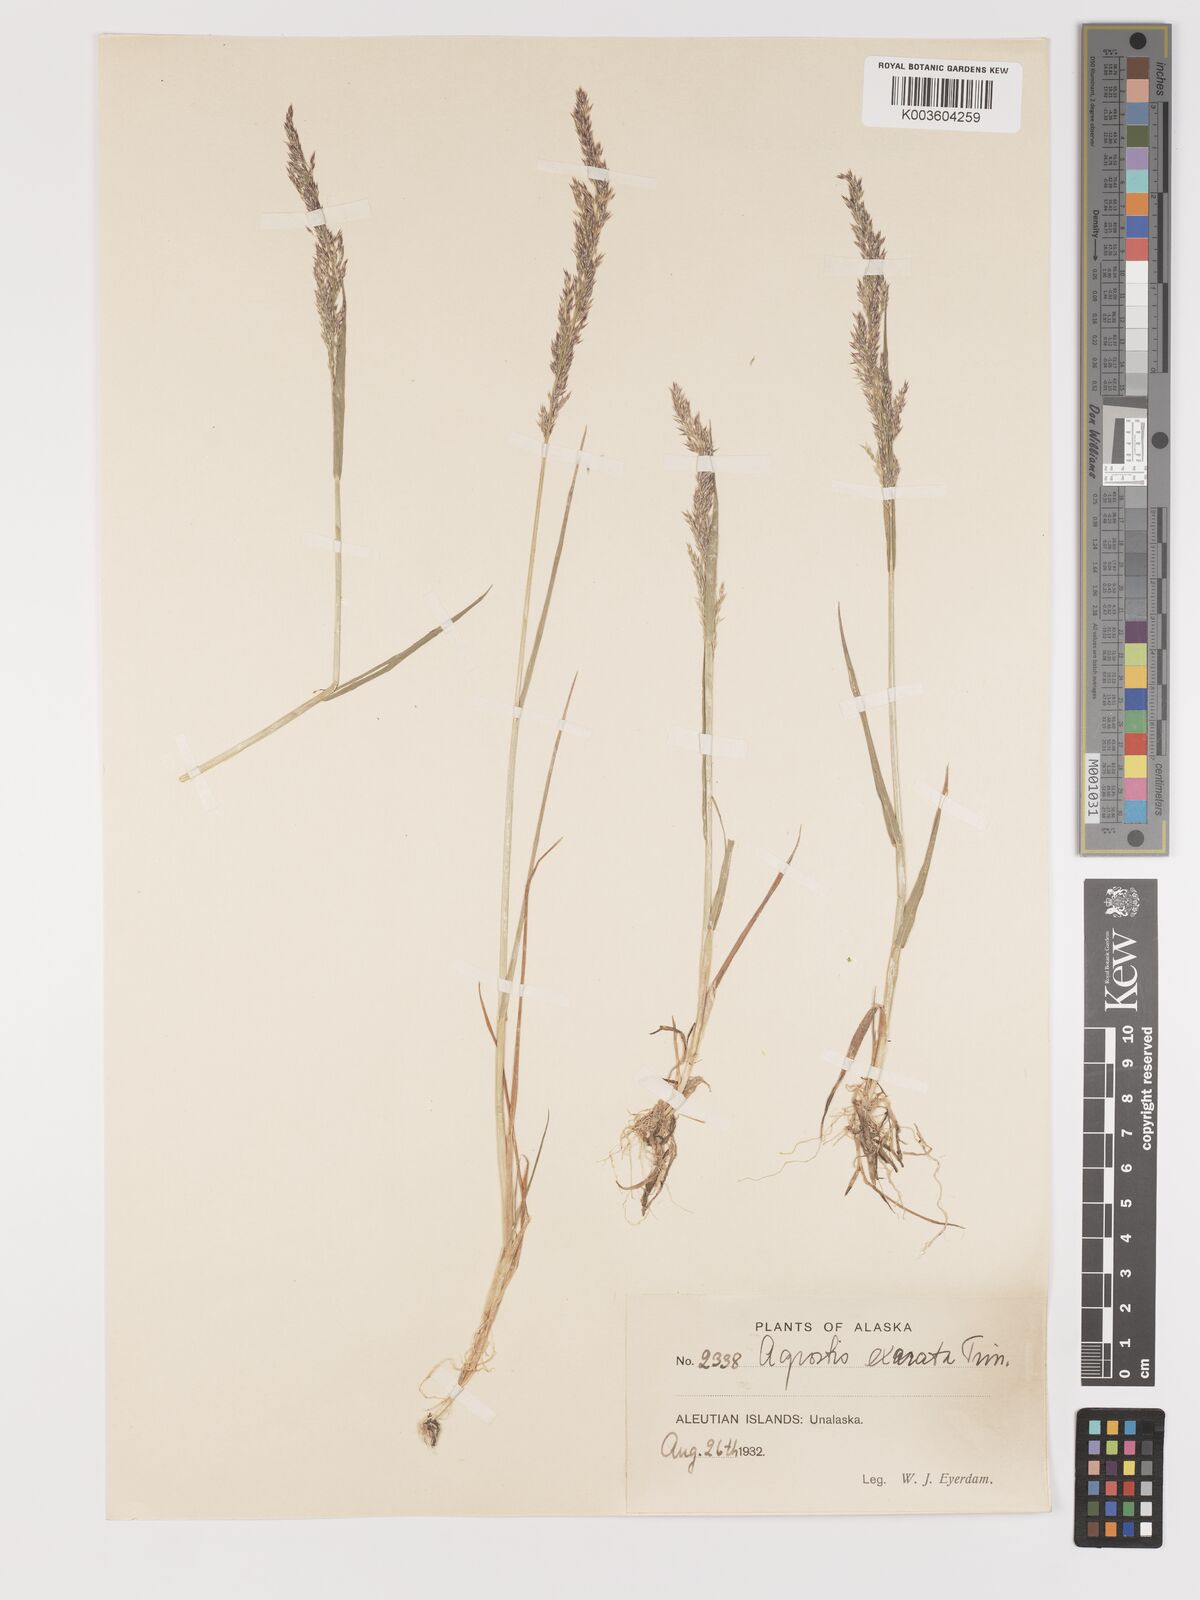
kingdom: Plantae
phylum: Tracheophyta
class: Liliopsida
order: Poales
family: Poaceae
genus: Agrostis
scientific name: Agrostis exarata
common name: Spike bent
